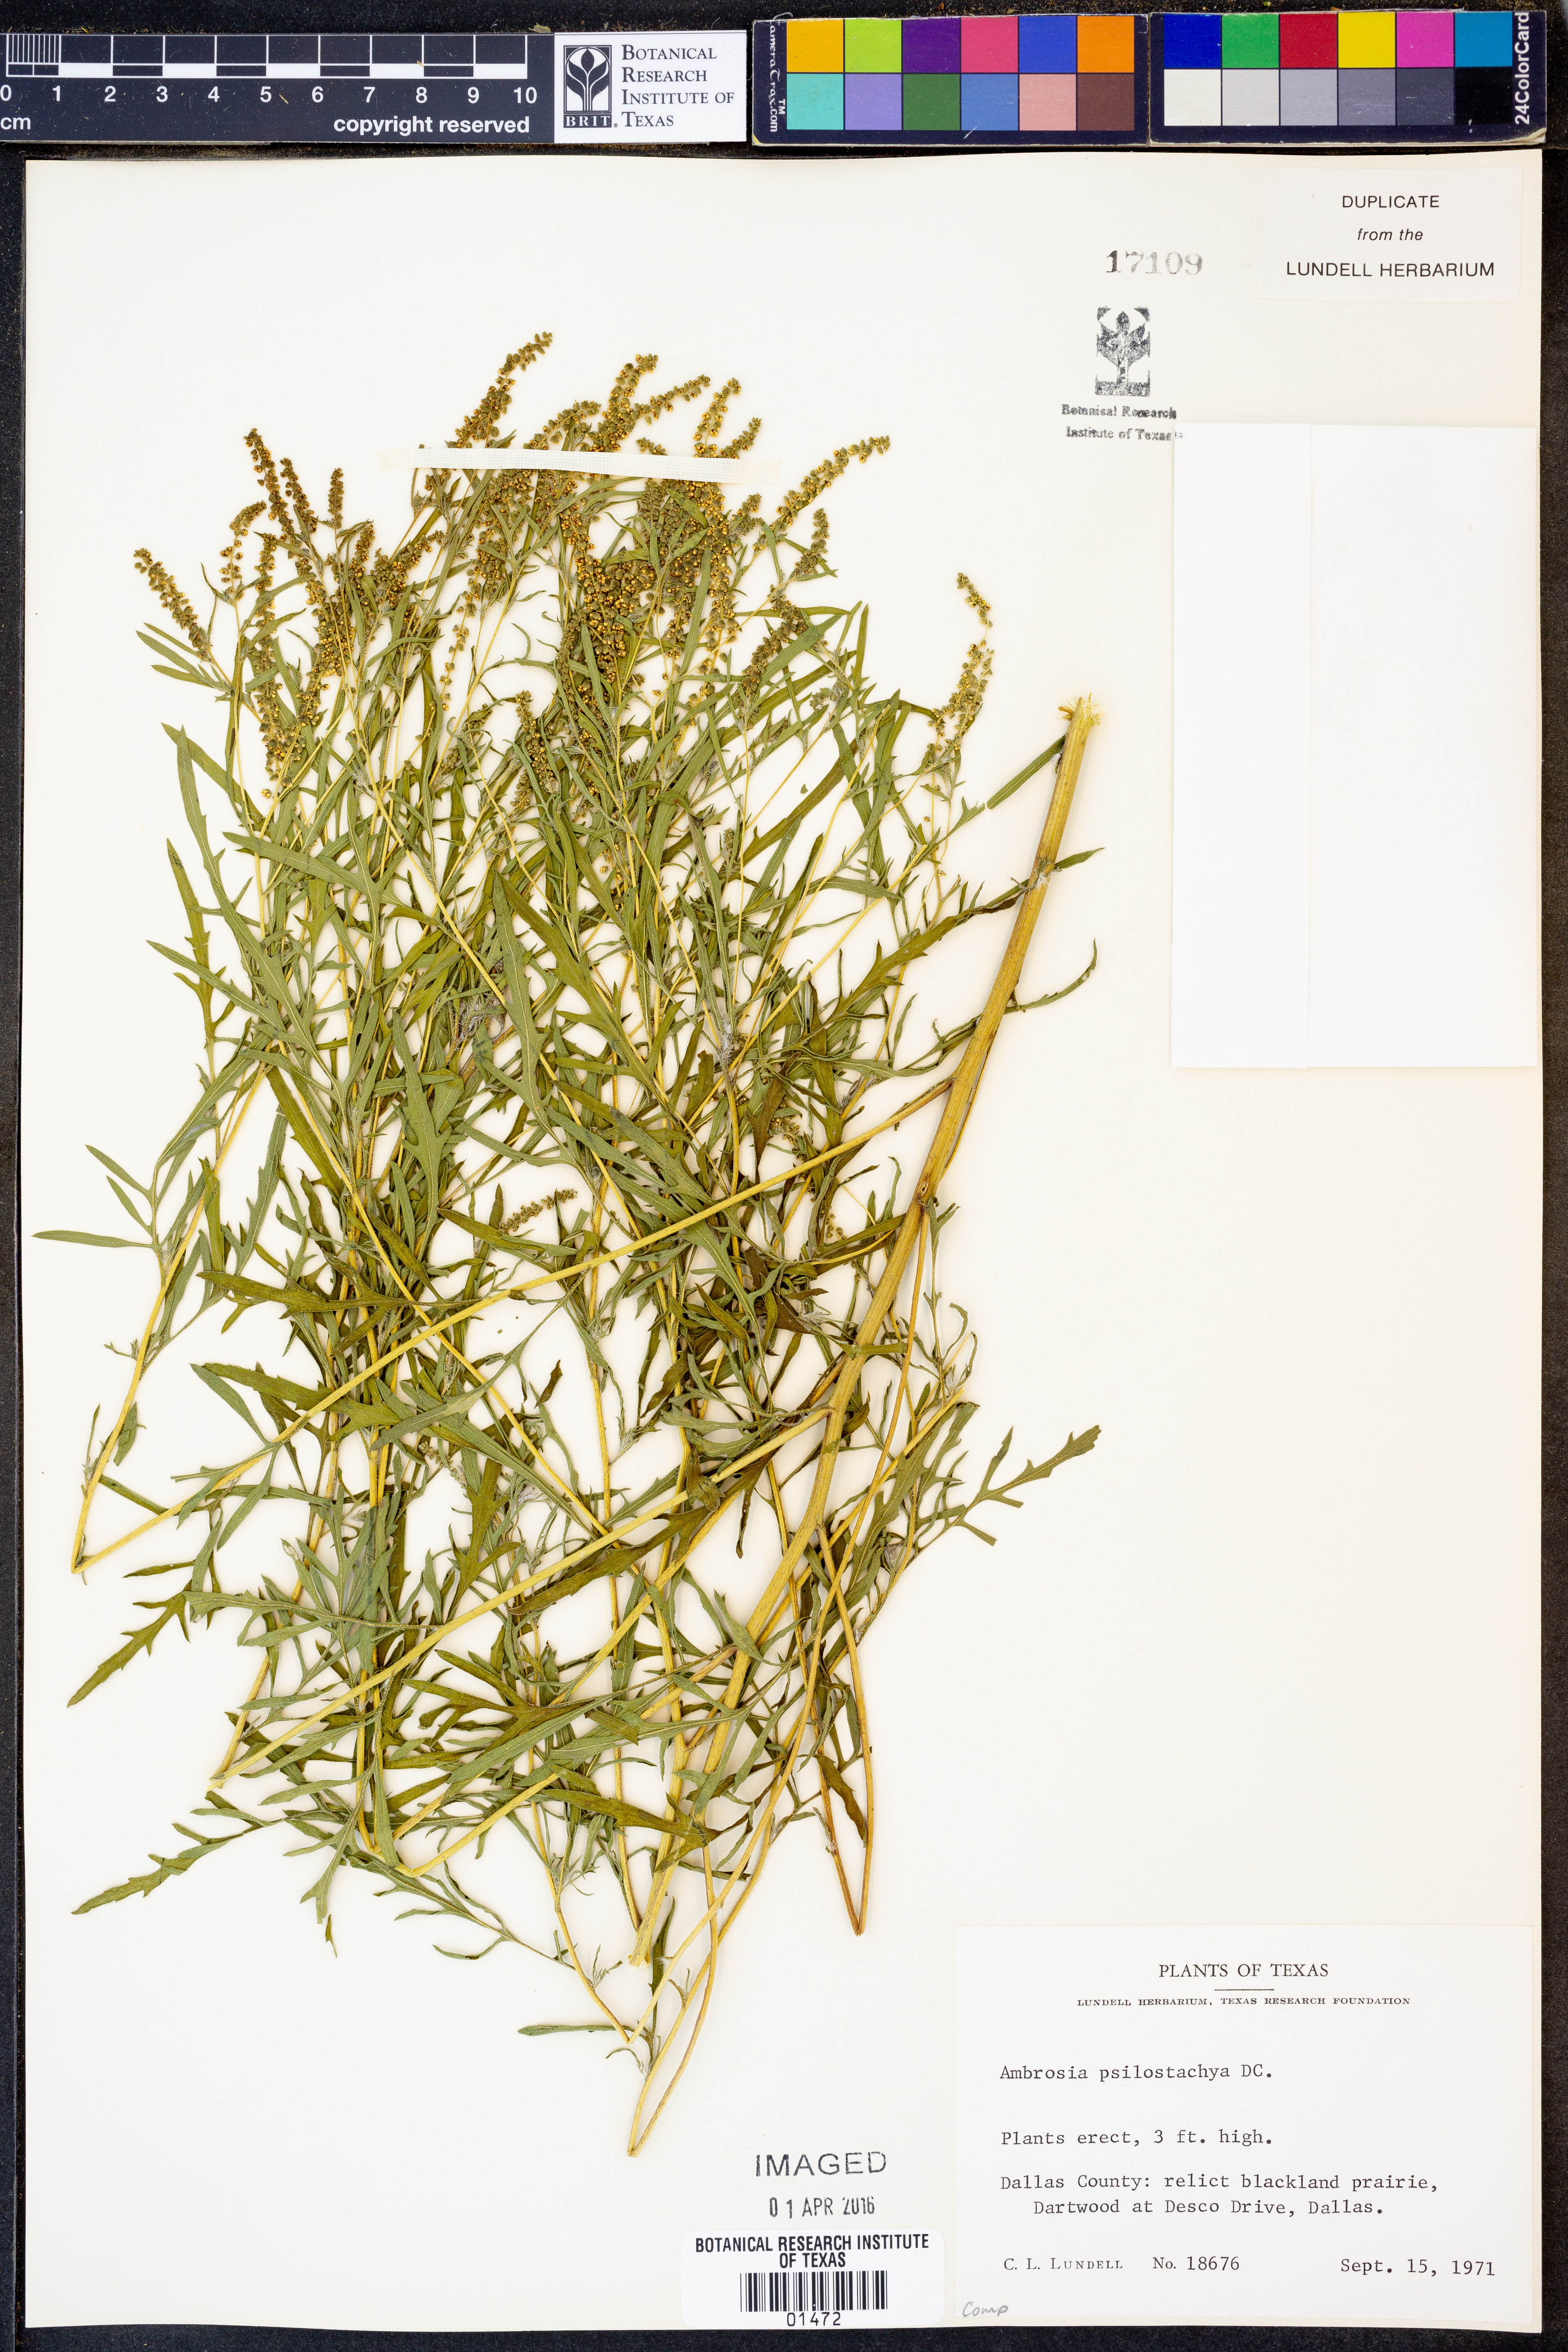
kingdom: Plantae
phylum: Tracheophyta
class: Magnoliopsida
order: Asterales
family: Asteraceae
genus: Ambrosia
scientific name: Ambrosia psilostachya
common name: Perennial ragweed
